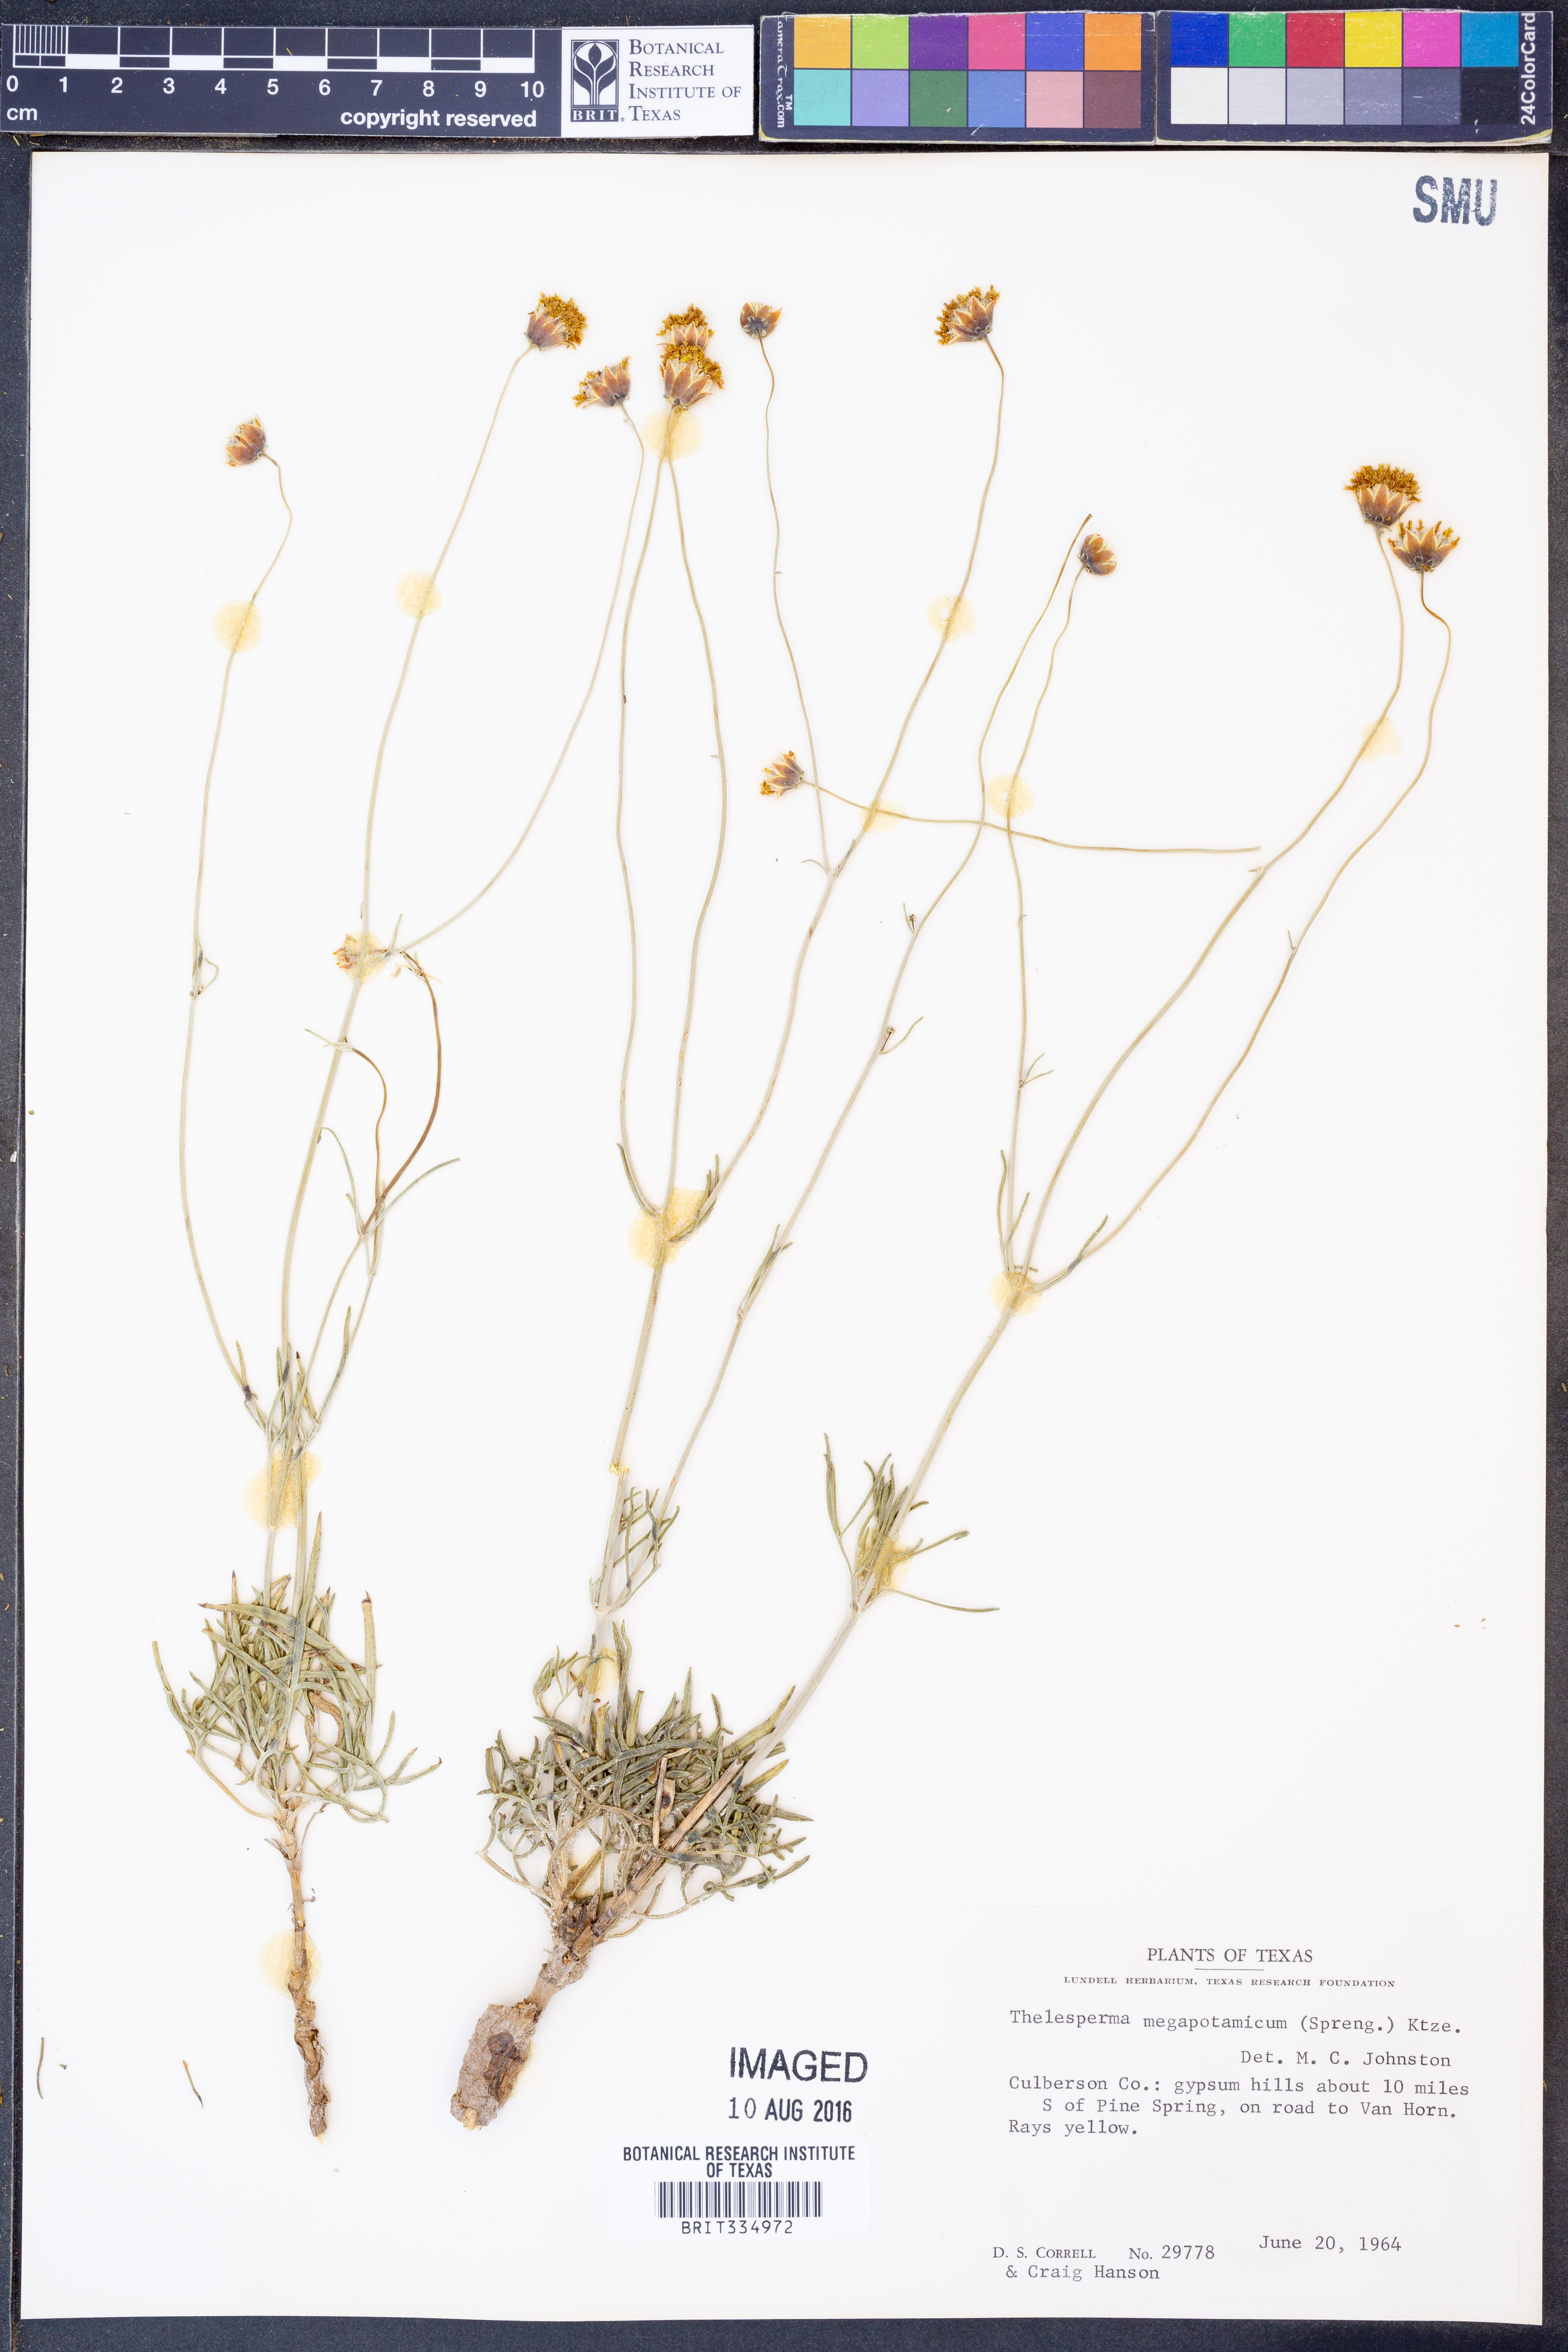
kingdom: Plantae
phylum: Tracheophyta
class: Magnoliopsida
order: Asterales
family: Asteraceae
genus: Thelesperma
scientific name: Thelesperma megapotamicum
